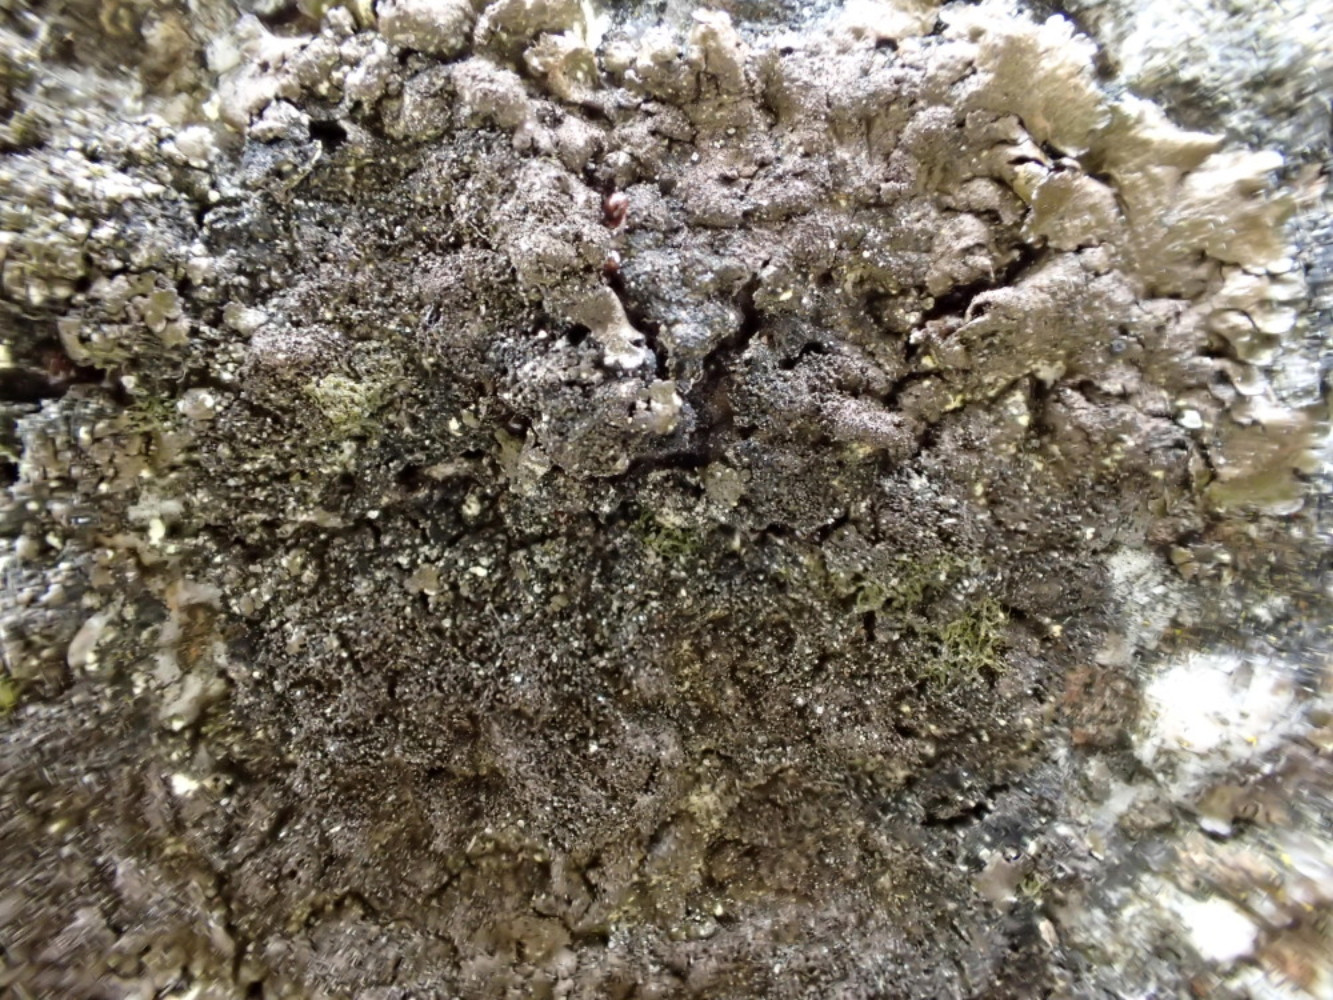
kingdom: Fungi
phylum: Ascomycota
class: Lecanoromycetes
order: Lecanorales
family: Parmeliaceae
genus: Melanelixia
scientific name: Melanelixia fuliginosa
